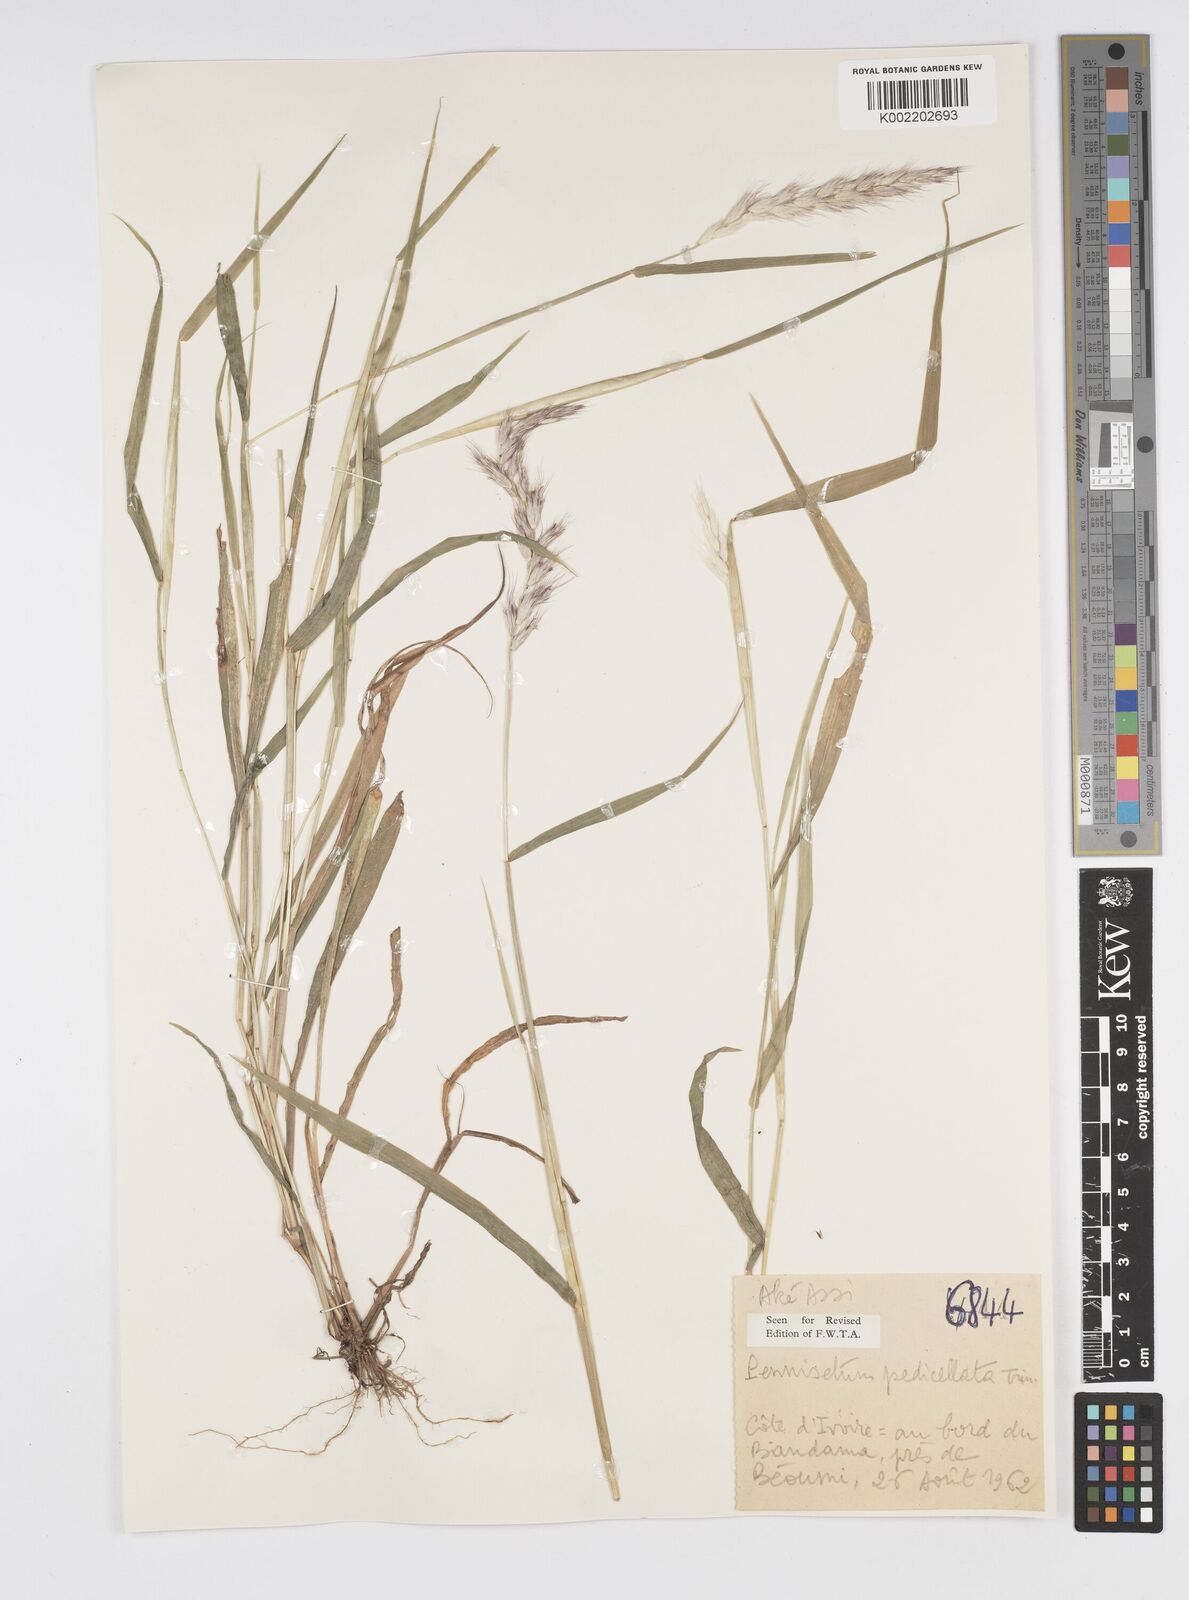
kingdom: Plantae
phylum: Tracheophyta
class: Liliopsida
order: Poales
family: Poaceae
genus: Cenchrus
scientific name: Cenchrus pedicellatus
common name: Hairy fountain grass
